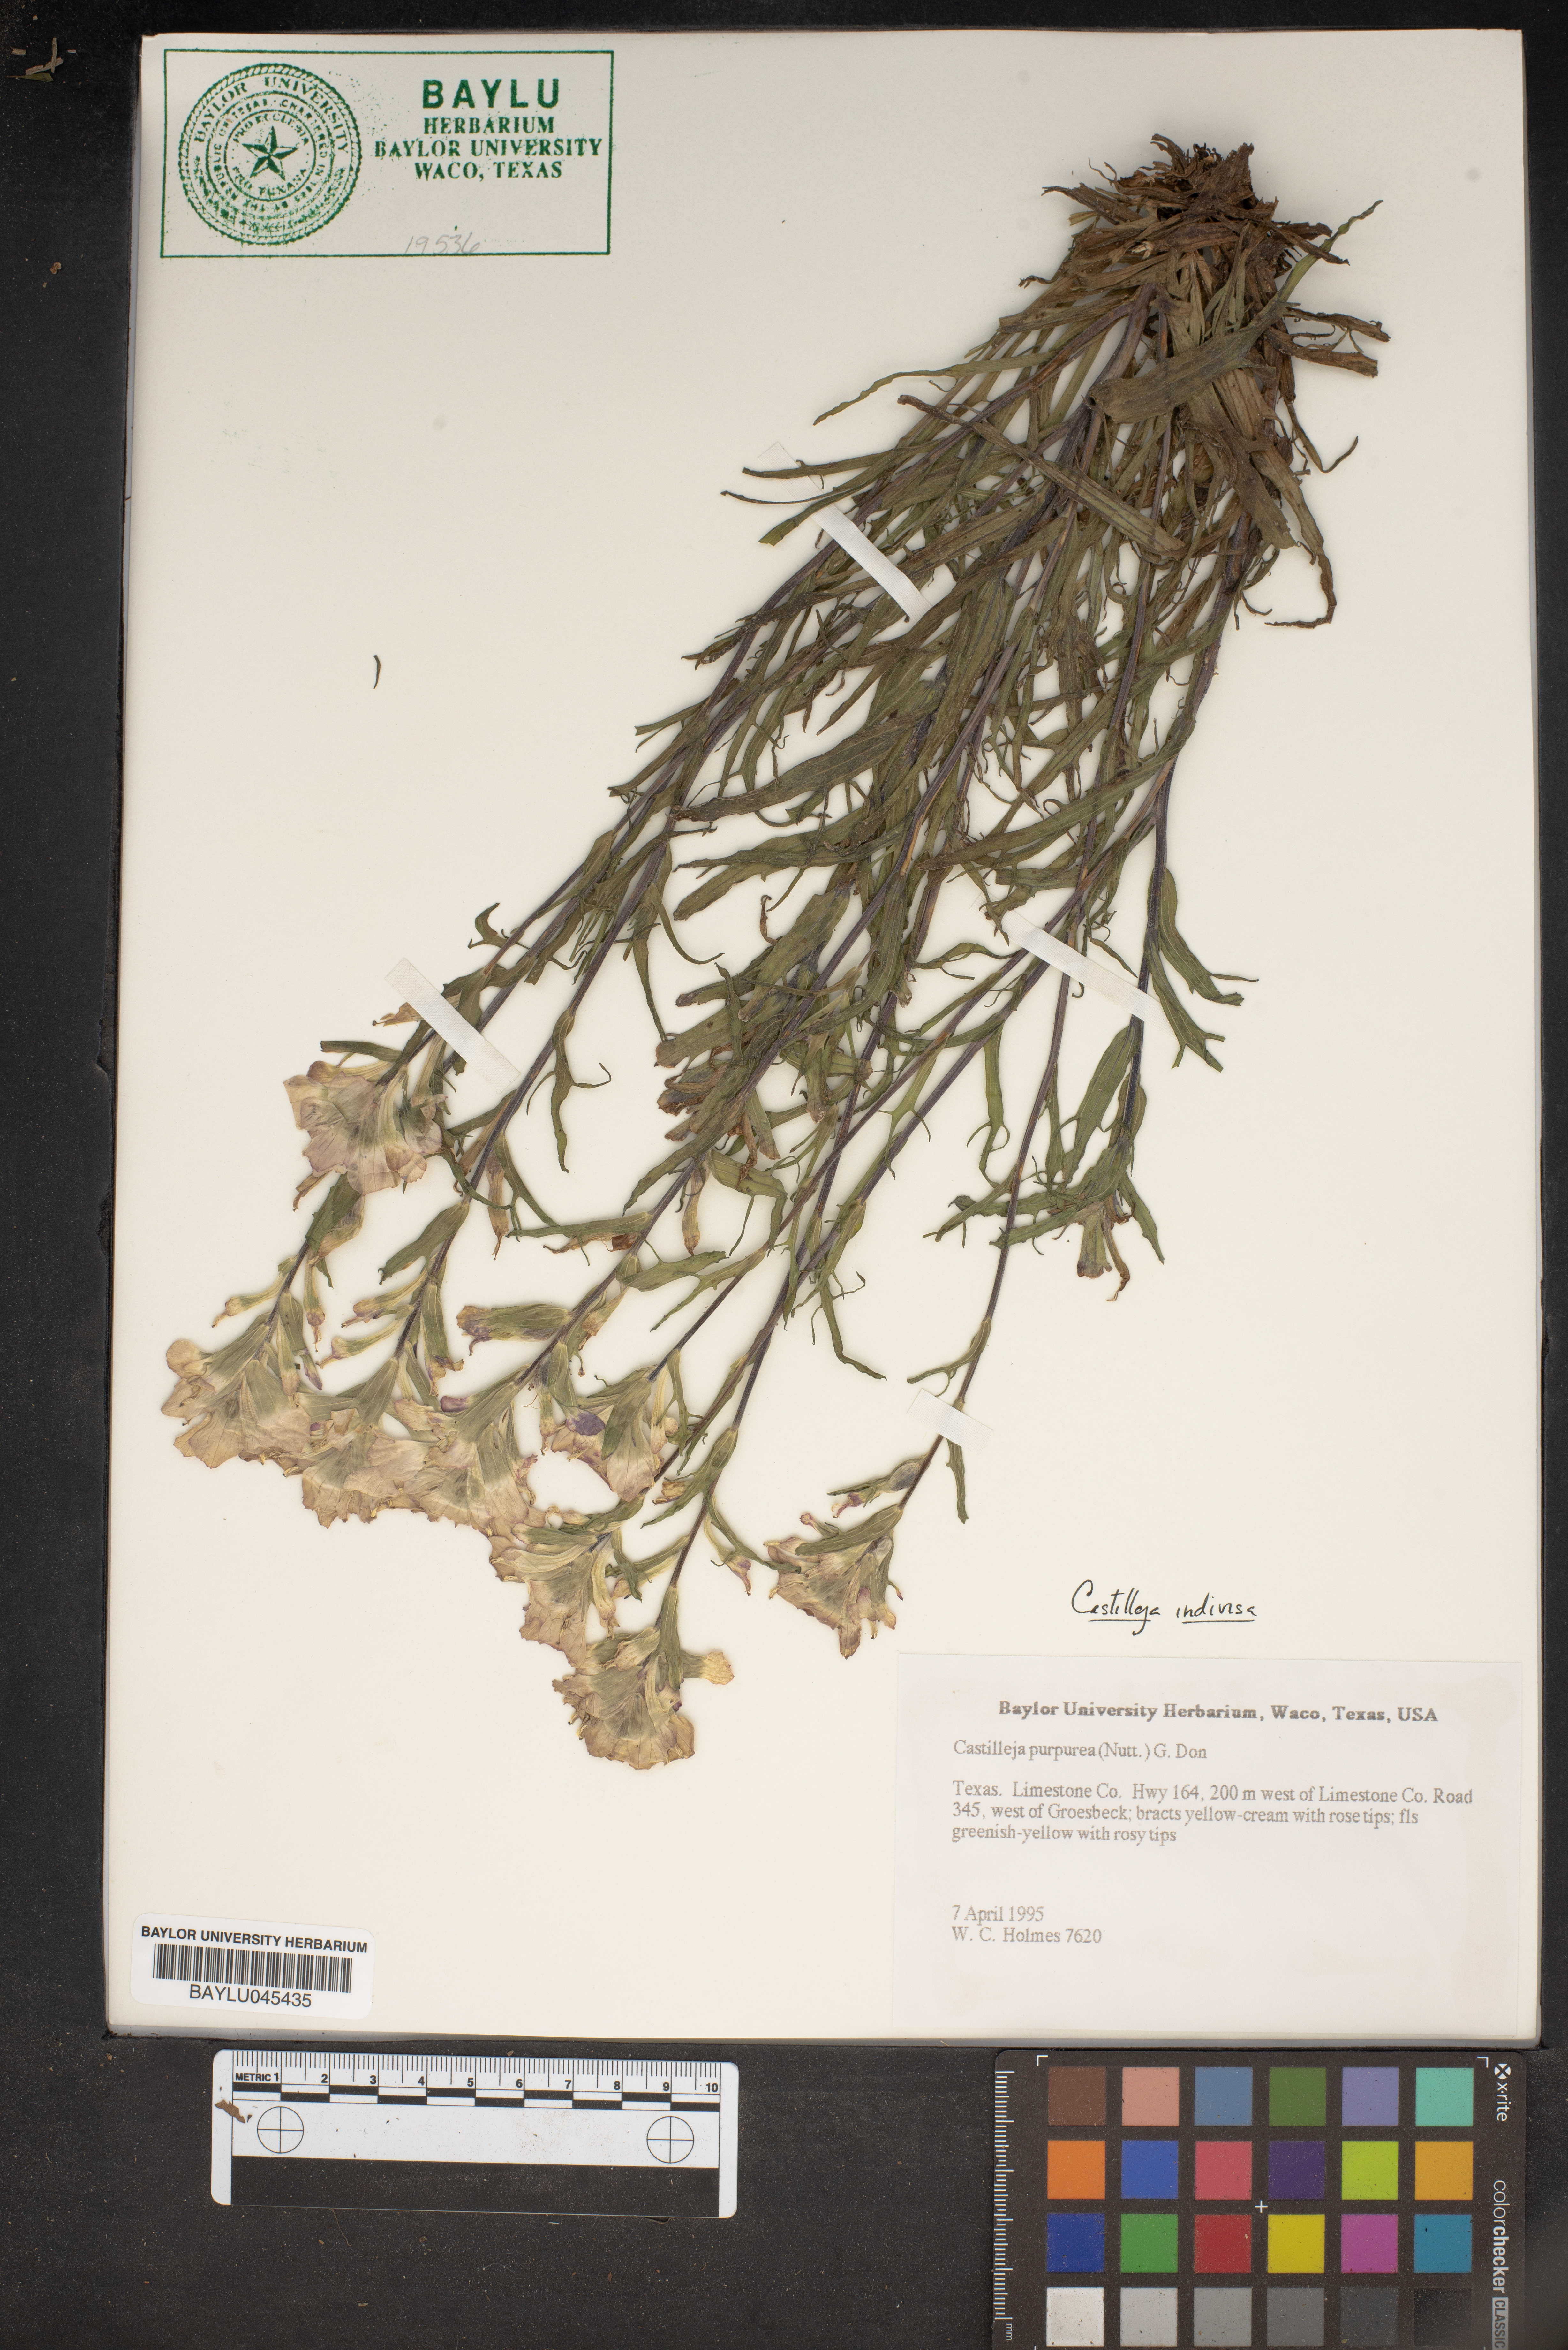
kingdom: Plantae
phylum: Tracheophyta
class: Magnoliopsida
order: Lamiales
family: Orobanchaceae
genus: Castilleja
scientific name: Castilleja purpurea
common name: Plains paintbrush
